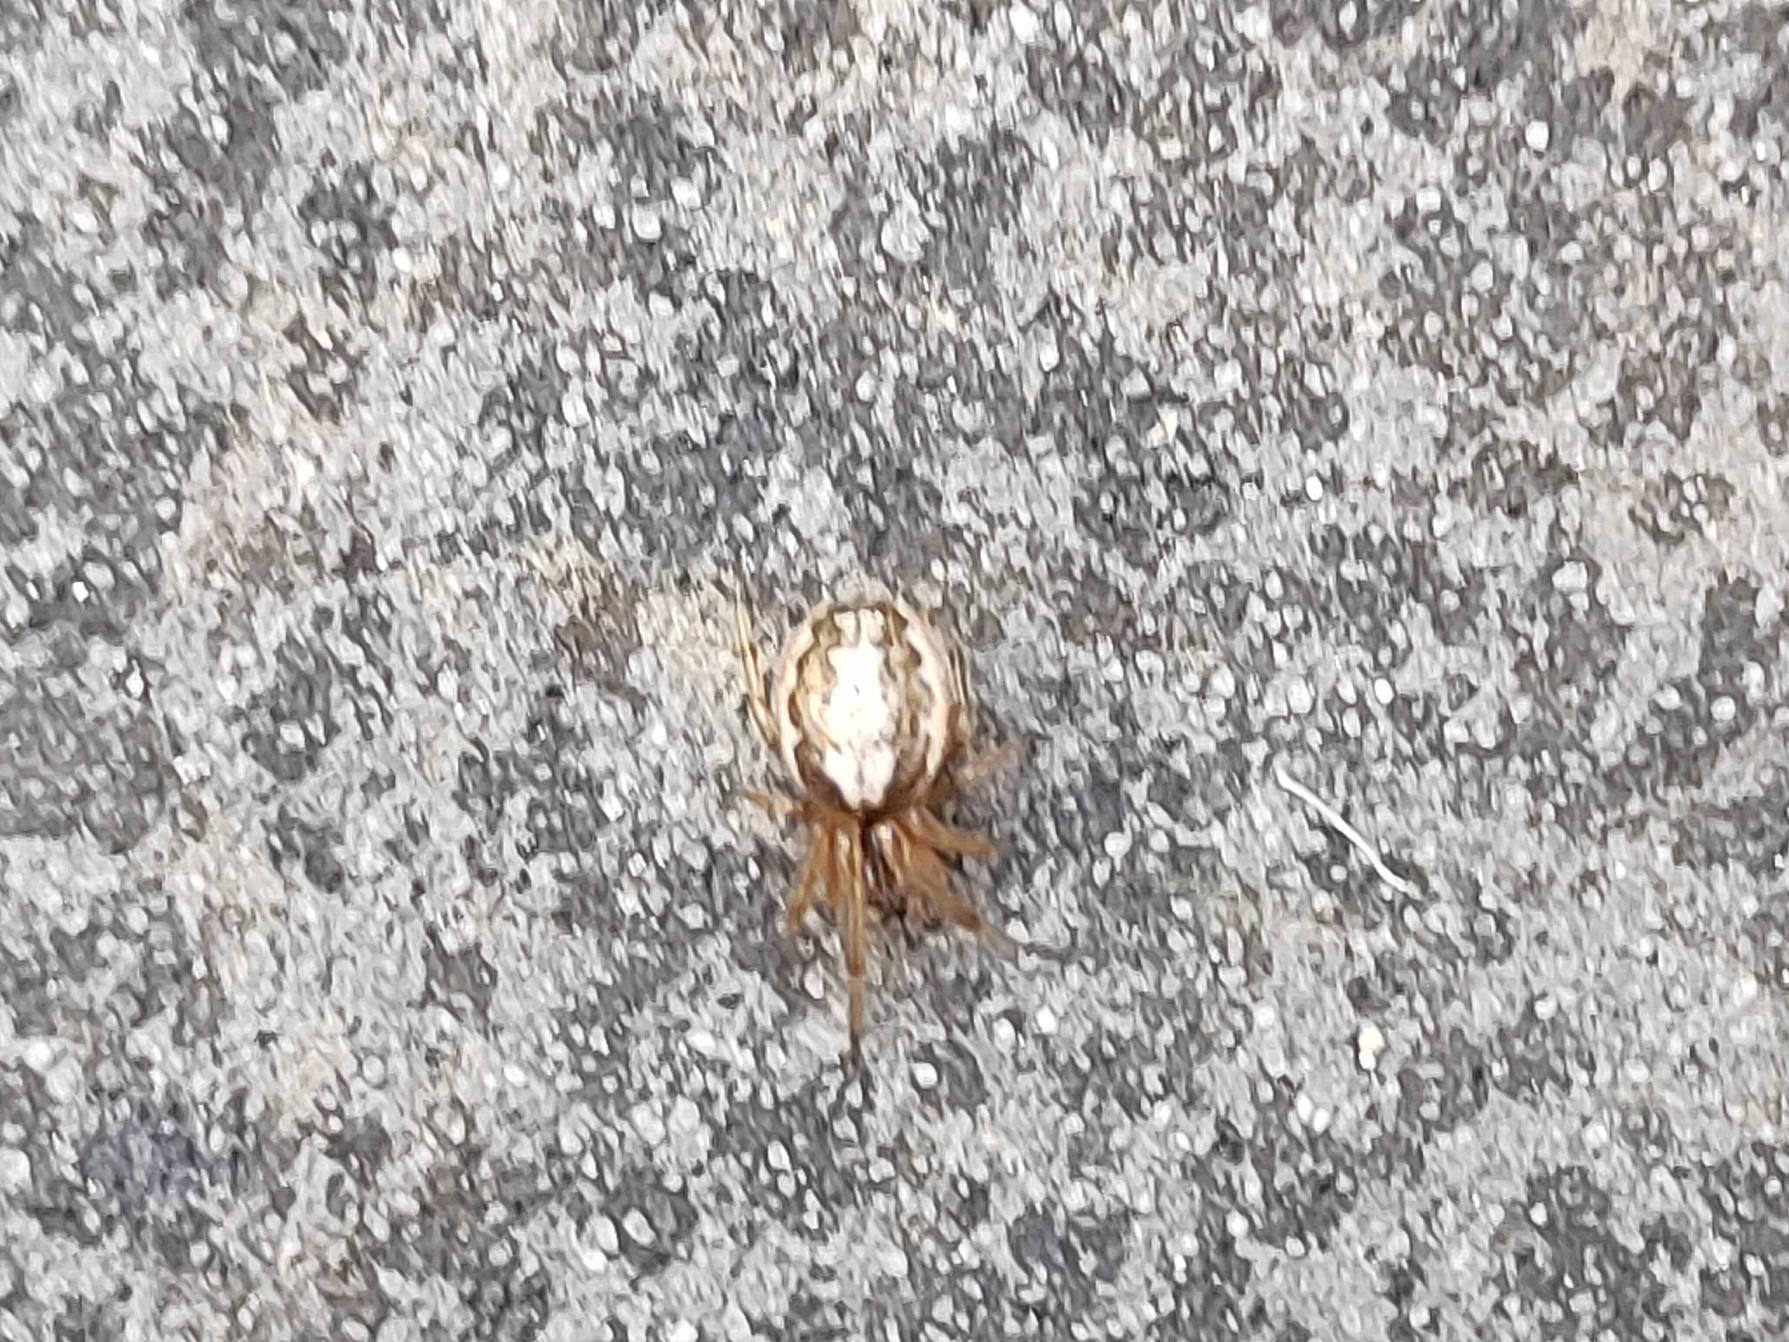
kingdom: Animalia
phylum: Arthropoda
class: Arachnida
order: Araneae
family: Araneidae
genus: Zygiella
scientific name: Zygiella x-notata
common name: Grå sektoredderkop
